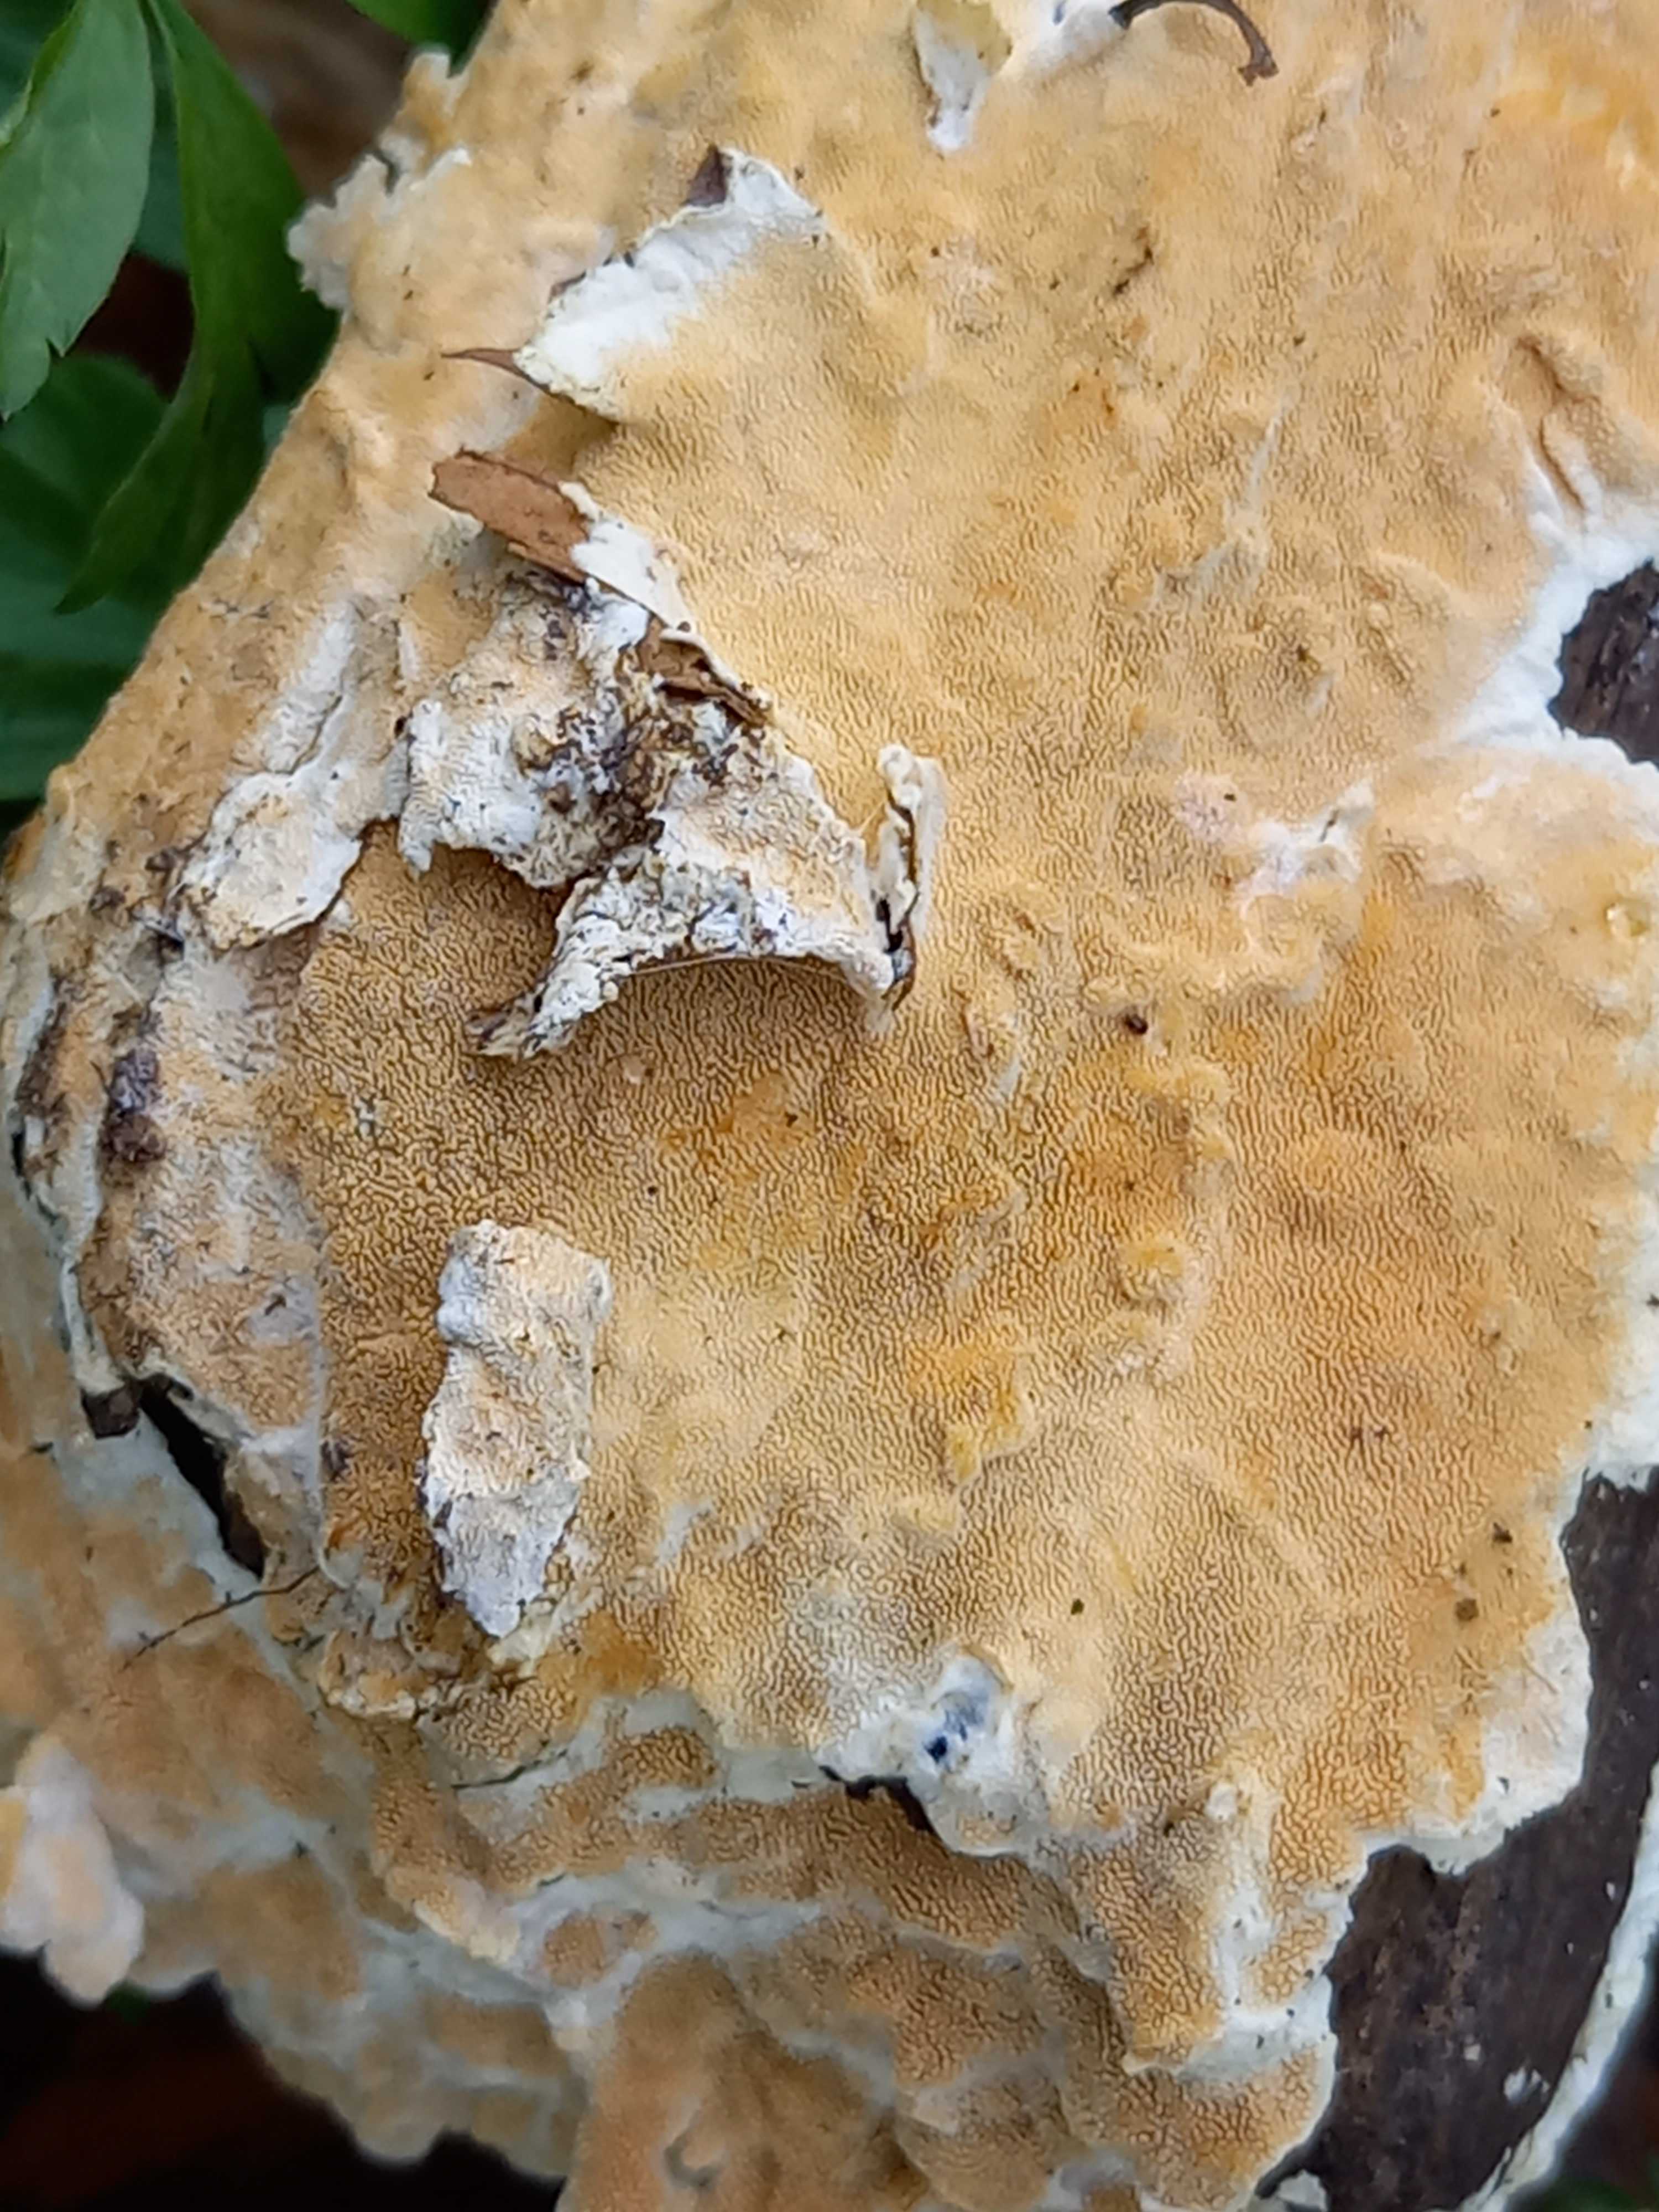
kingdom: Fungi
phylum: Basidiomycota
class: Agaricomycetes
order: Polyporales
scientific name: Polyporales
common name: poresvampordenen
